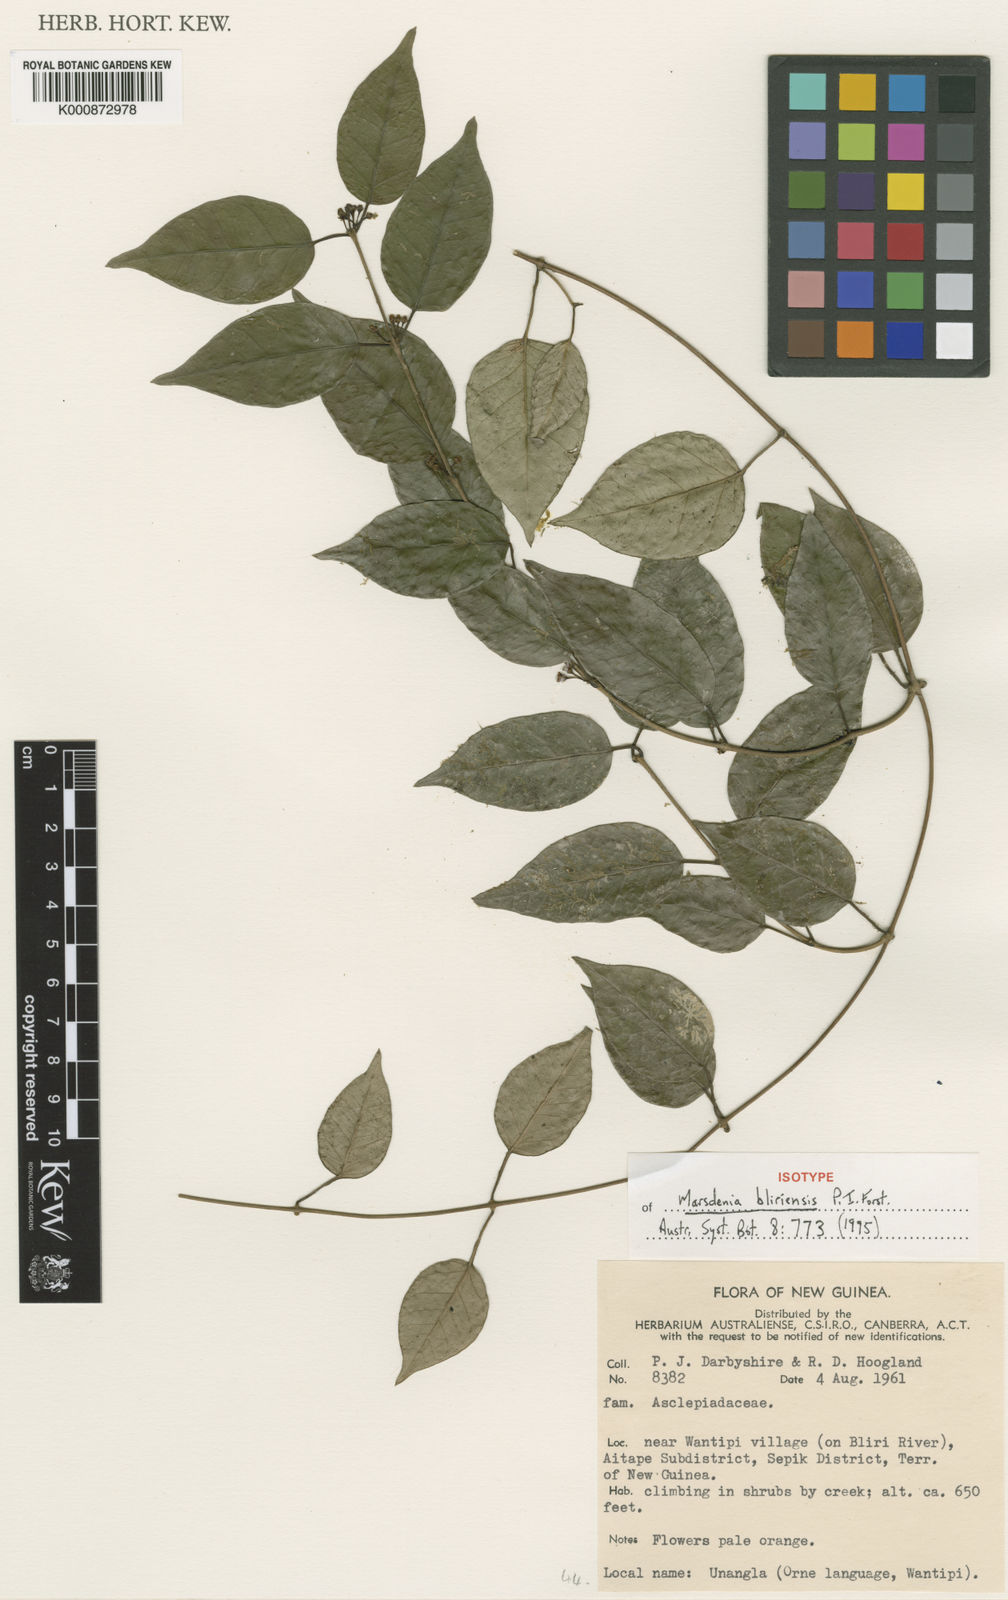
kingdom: Plantae
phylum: Tracheophyta
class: Magnoliopsida
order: Gentianales
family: Apocynaceae
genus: Leichhardtia
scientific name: Leichhardtia bliriensis
